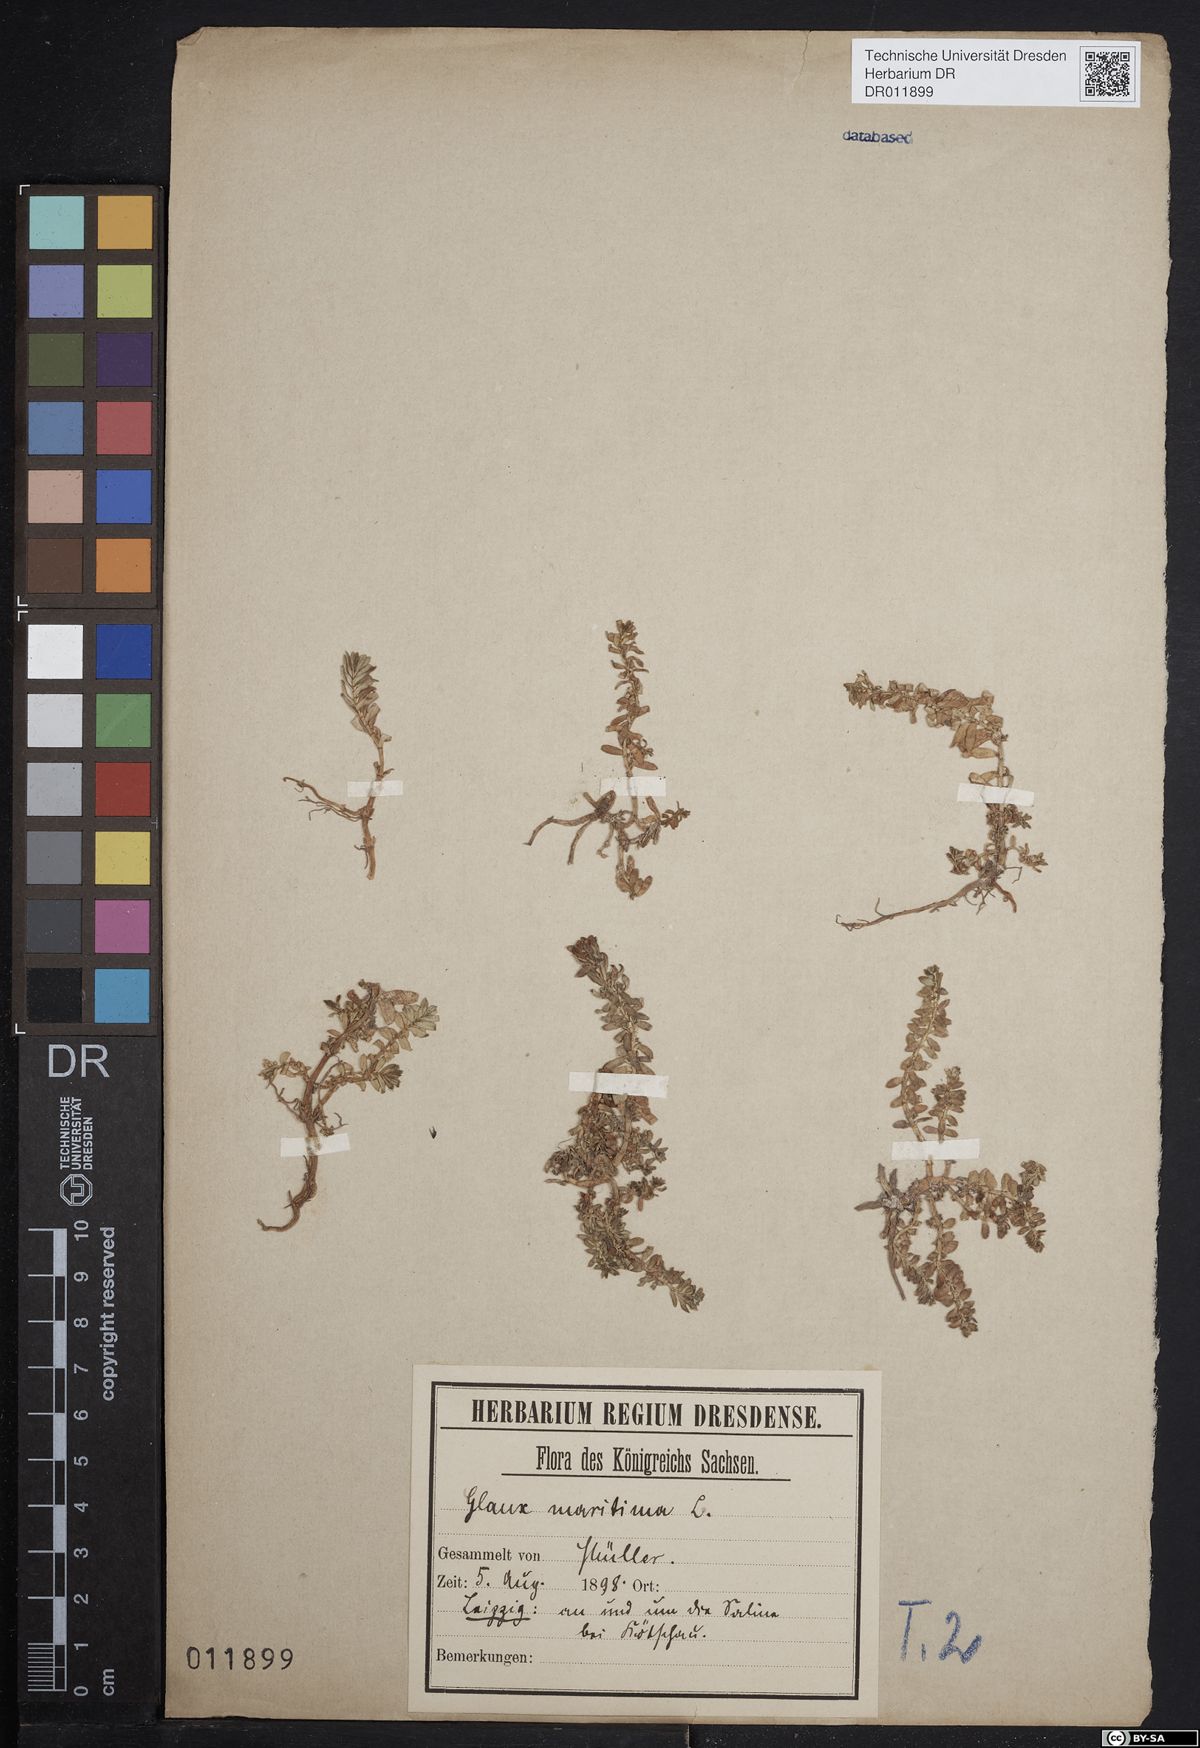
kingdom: Plantae
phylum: Tracheophyta
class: Magnoliopsida
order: Ericales
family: Primulaceae
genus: Lysimachia
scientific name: Lysimachia maritima
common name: Sea milkwort
